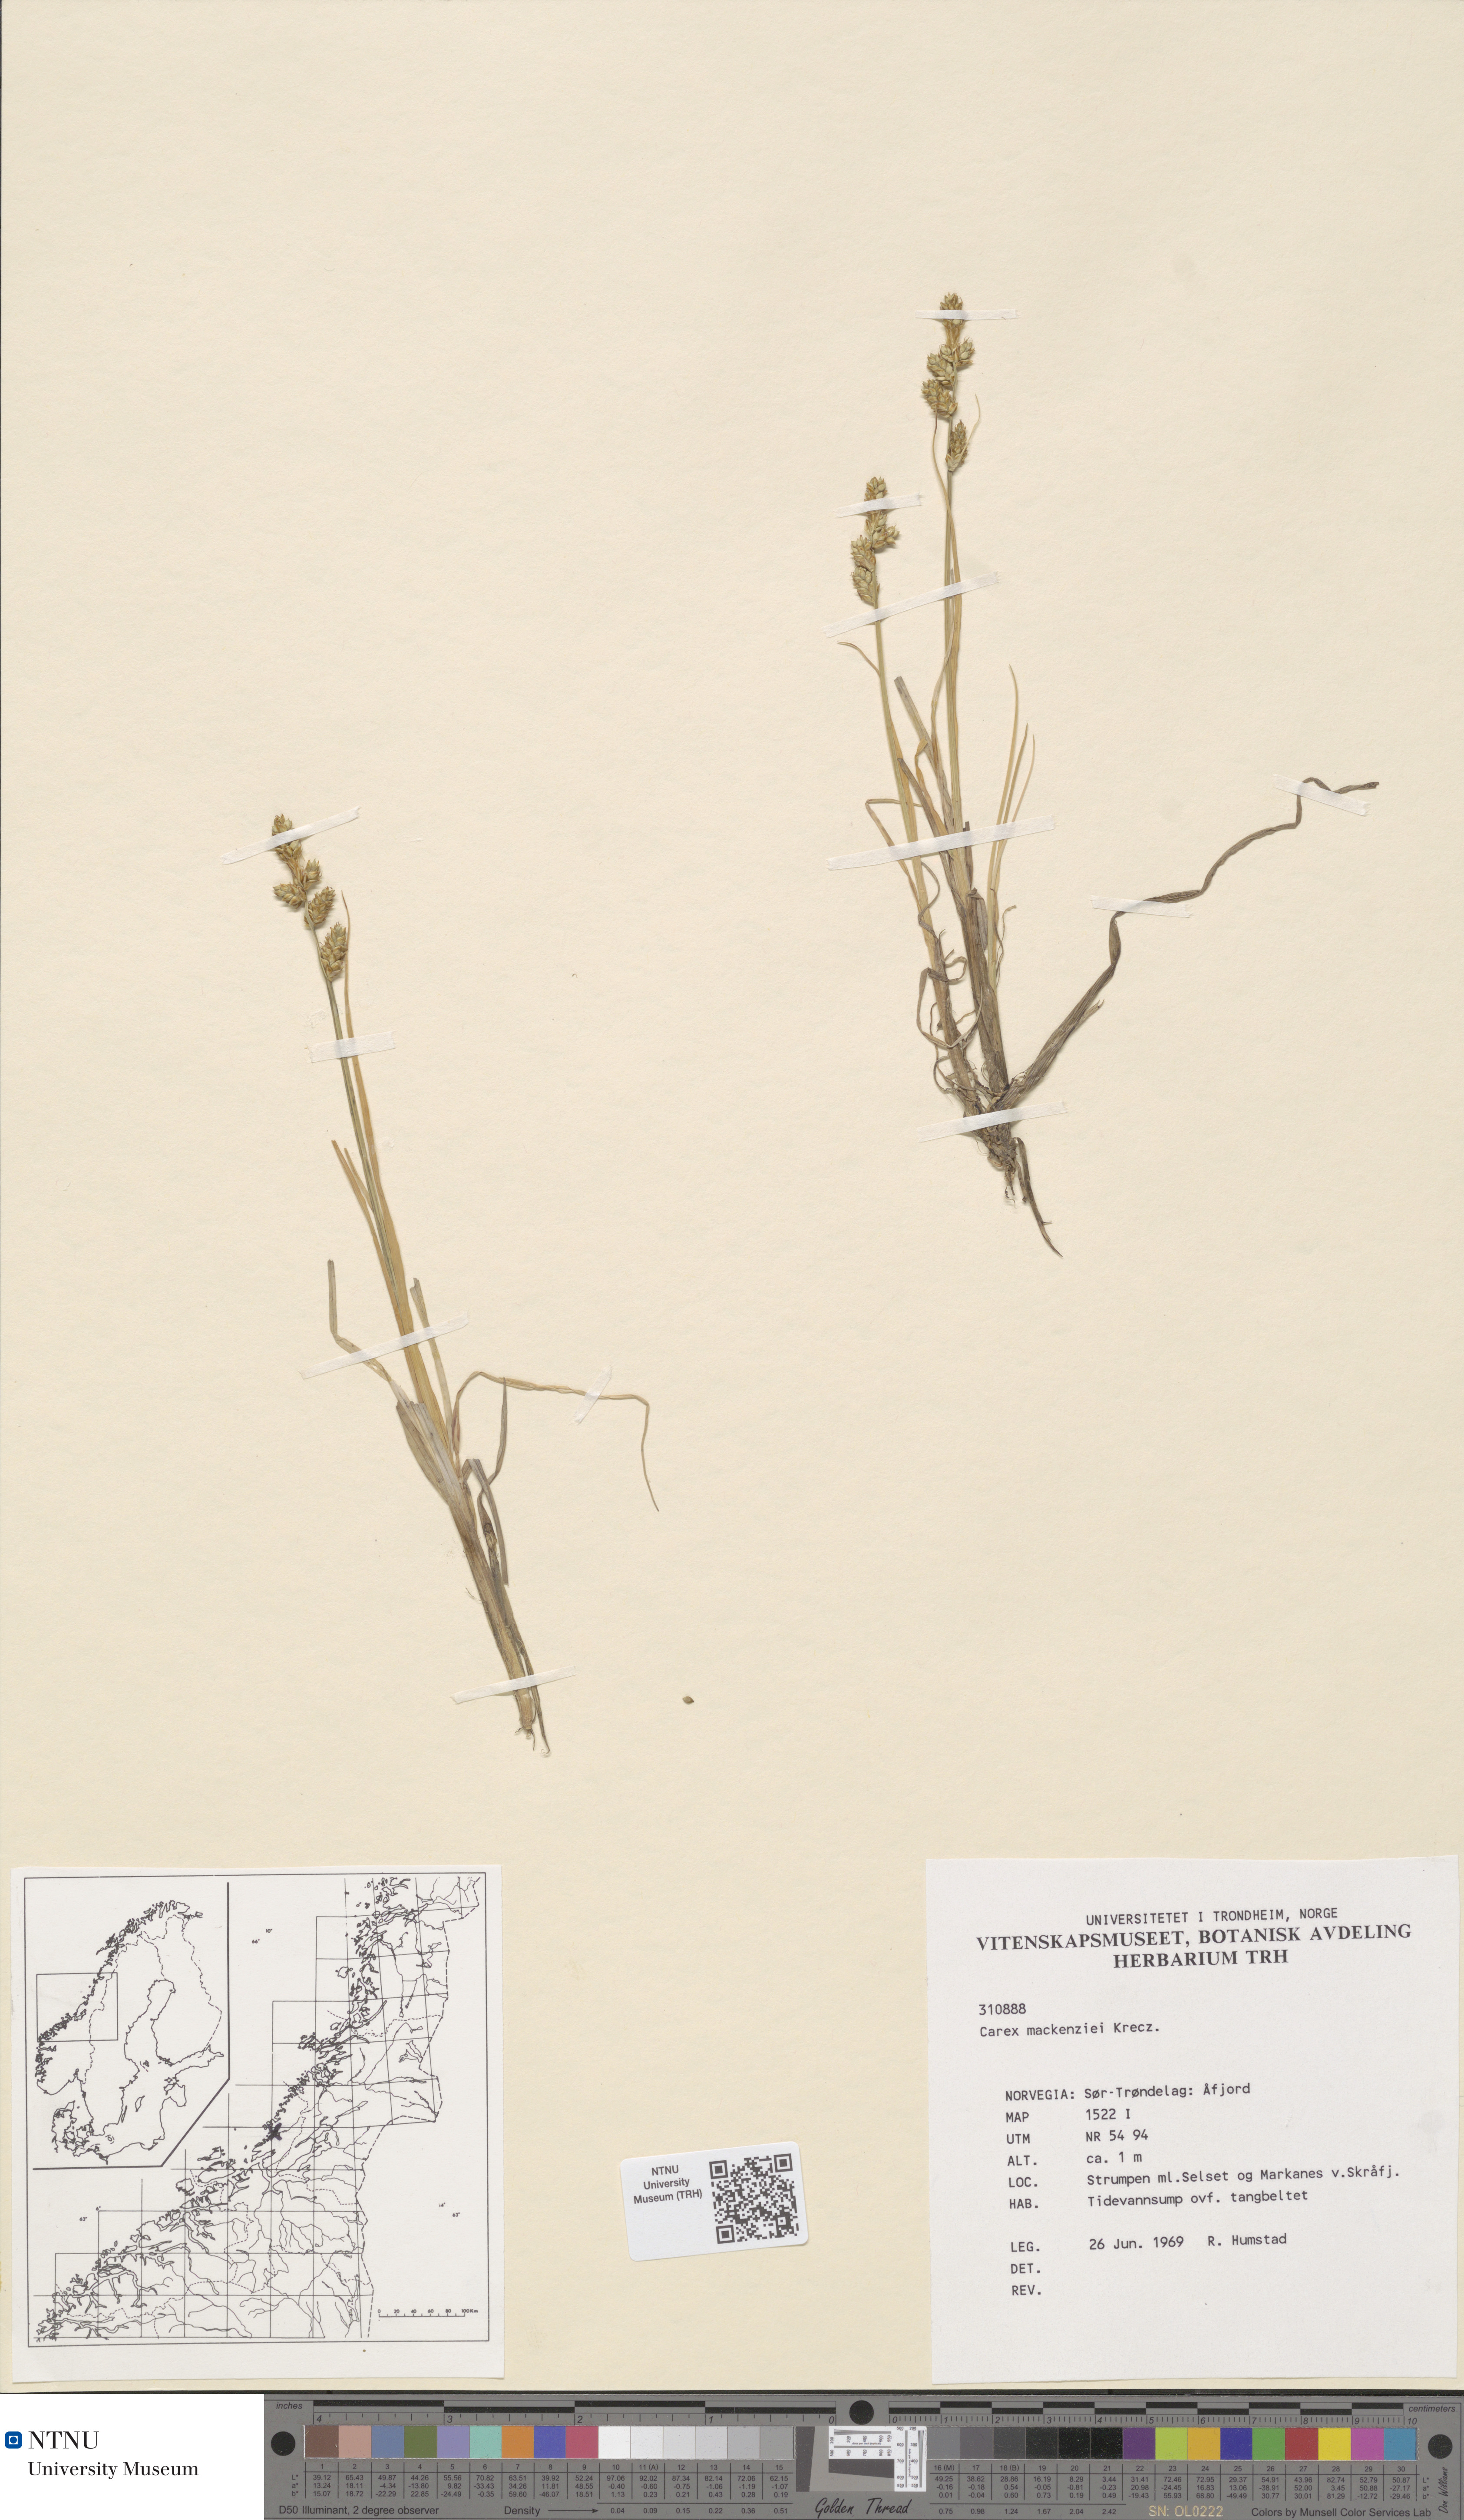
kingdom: Plantae
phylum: Tracheophyta
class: Liliopsida
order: Poales
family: Cyperaceae
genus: Carex
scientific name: Carex mackenziei
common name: Mackenzie's sedge
